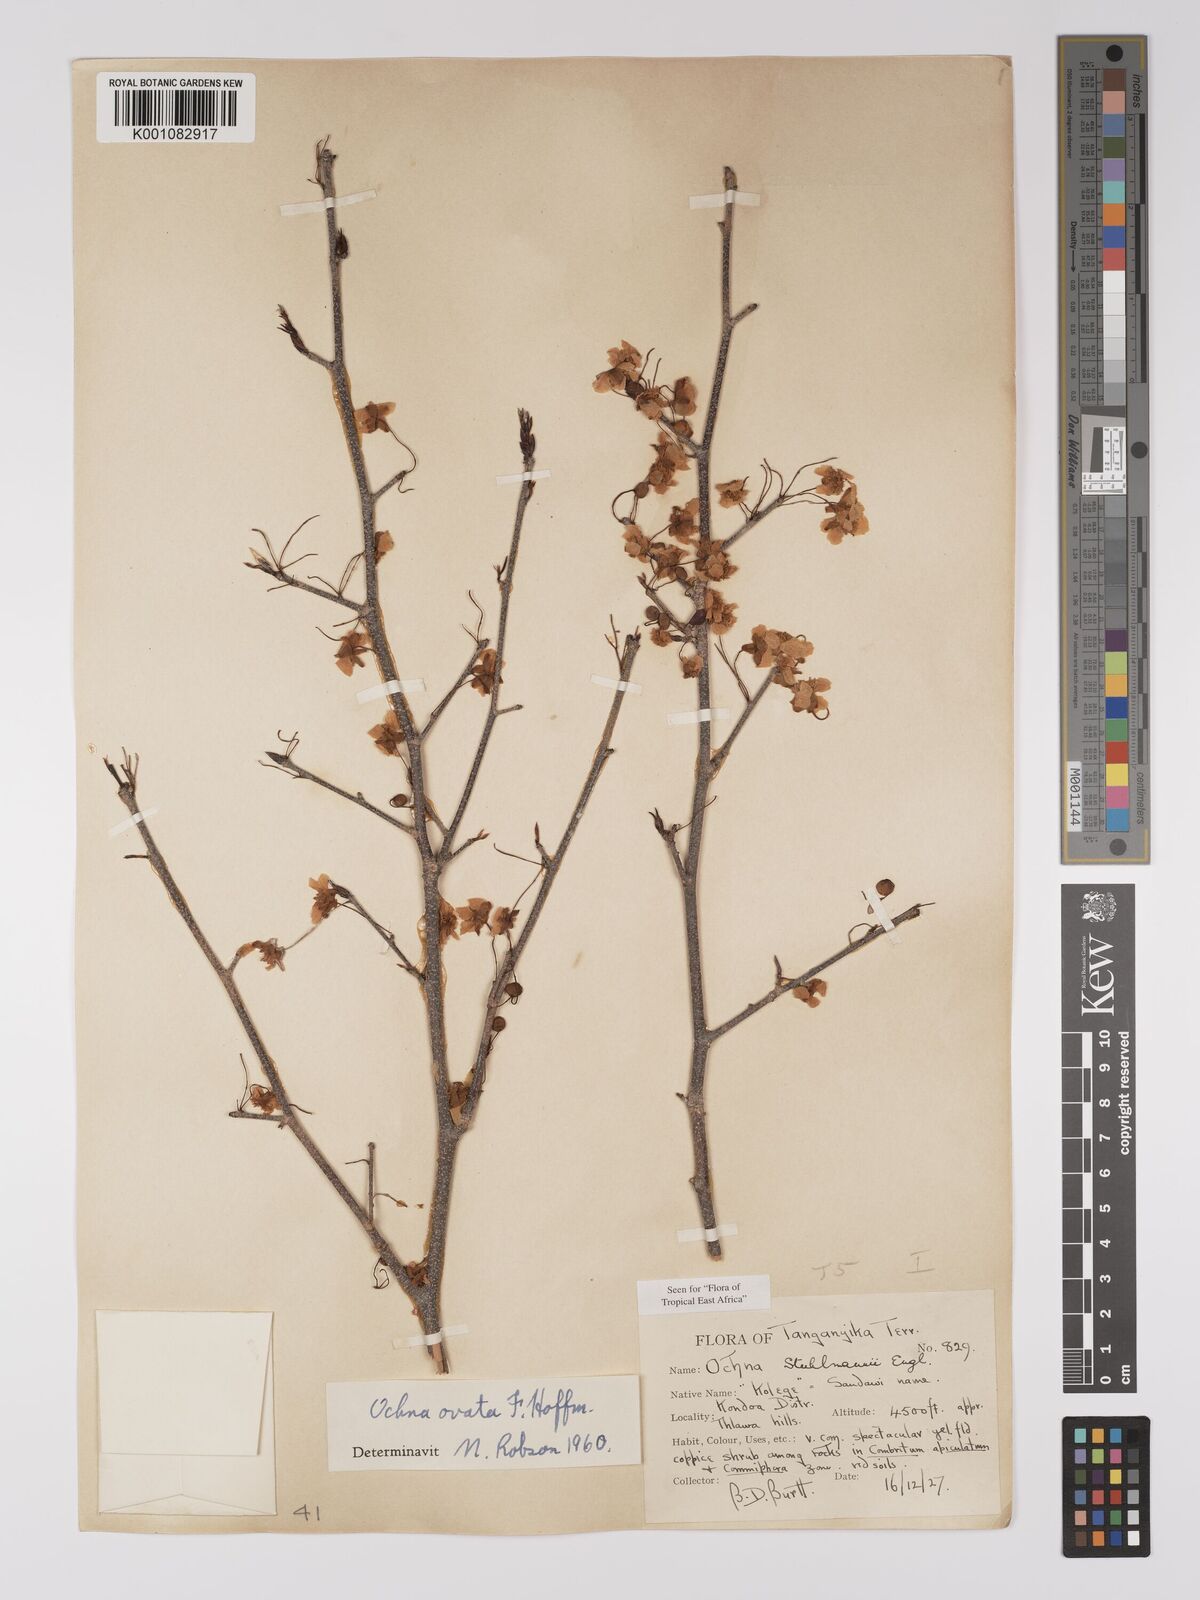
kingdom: Plantae
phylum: Tracheophyta
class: Magnoliopsida
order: Malpighiales
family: Ochnaceae
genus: Ochna
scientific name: Ochna ovata
